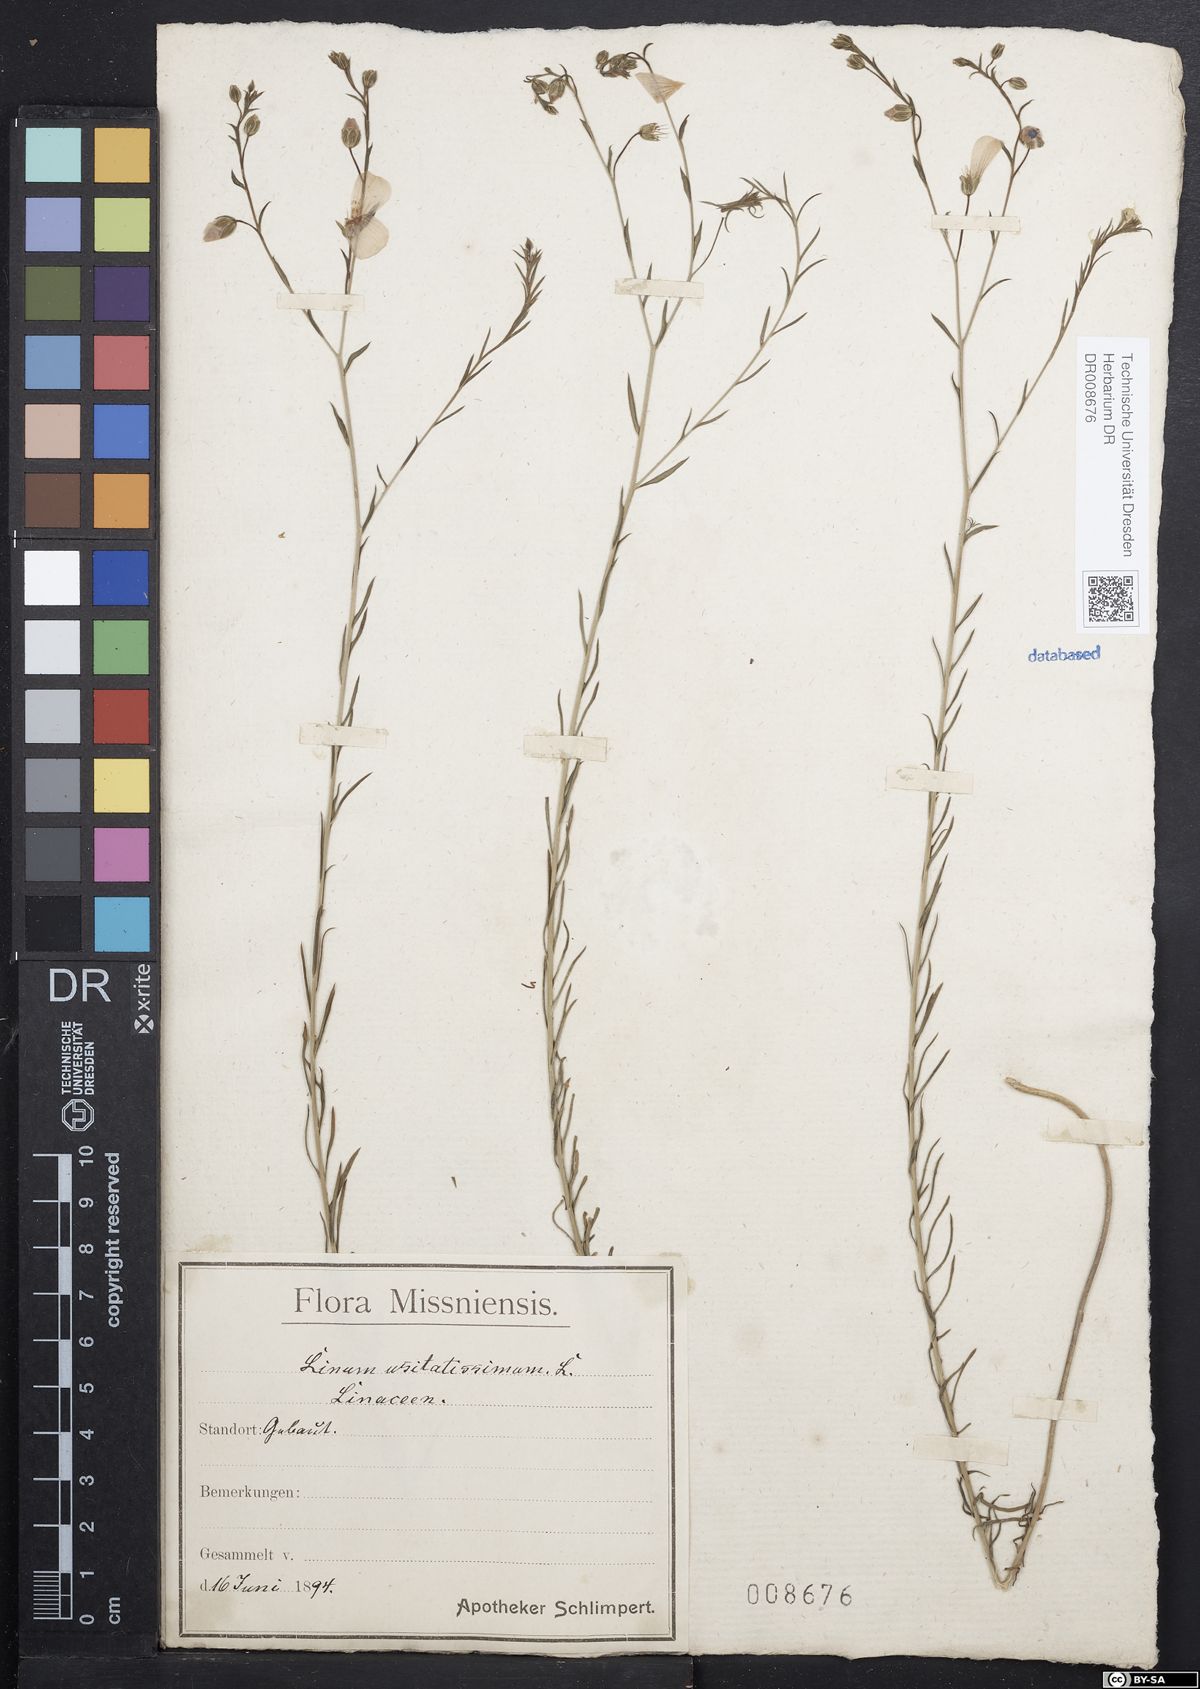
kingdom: Plantae
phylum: Tracheophyta
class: Magnoliopsida
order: Malpighiales
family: Linaceae
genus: Linum
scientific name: Linum usitatissimum
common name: Flax
